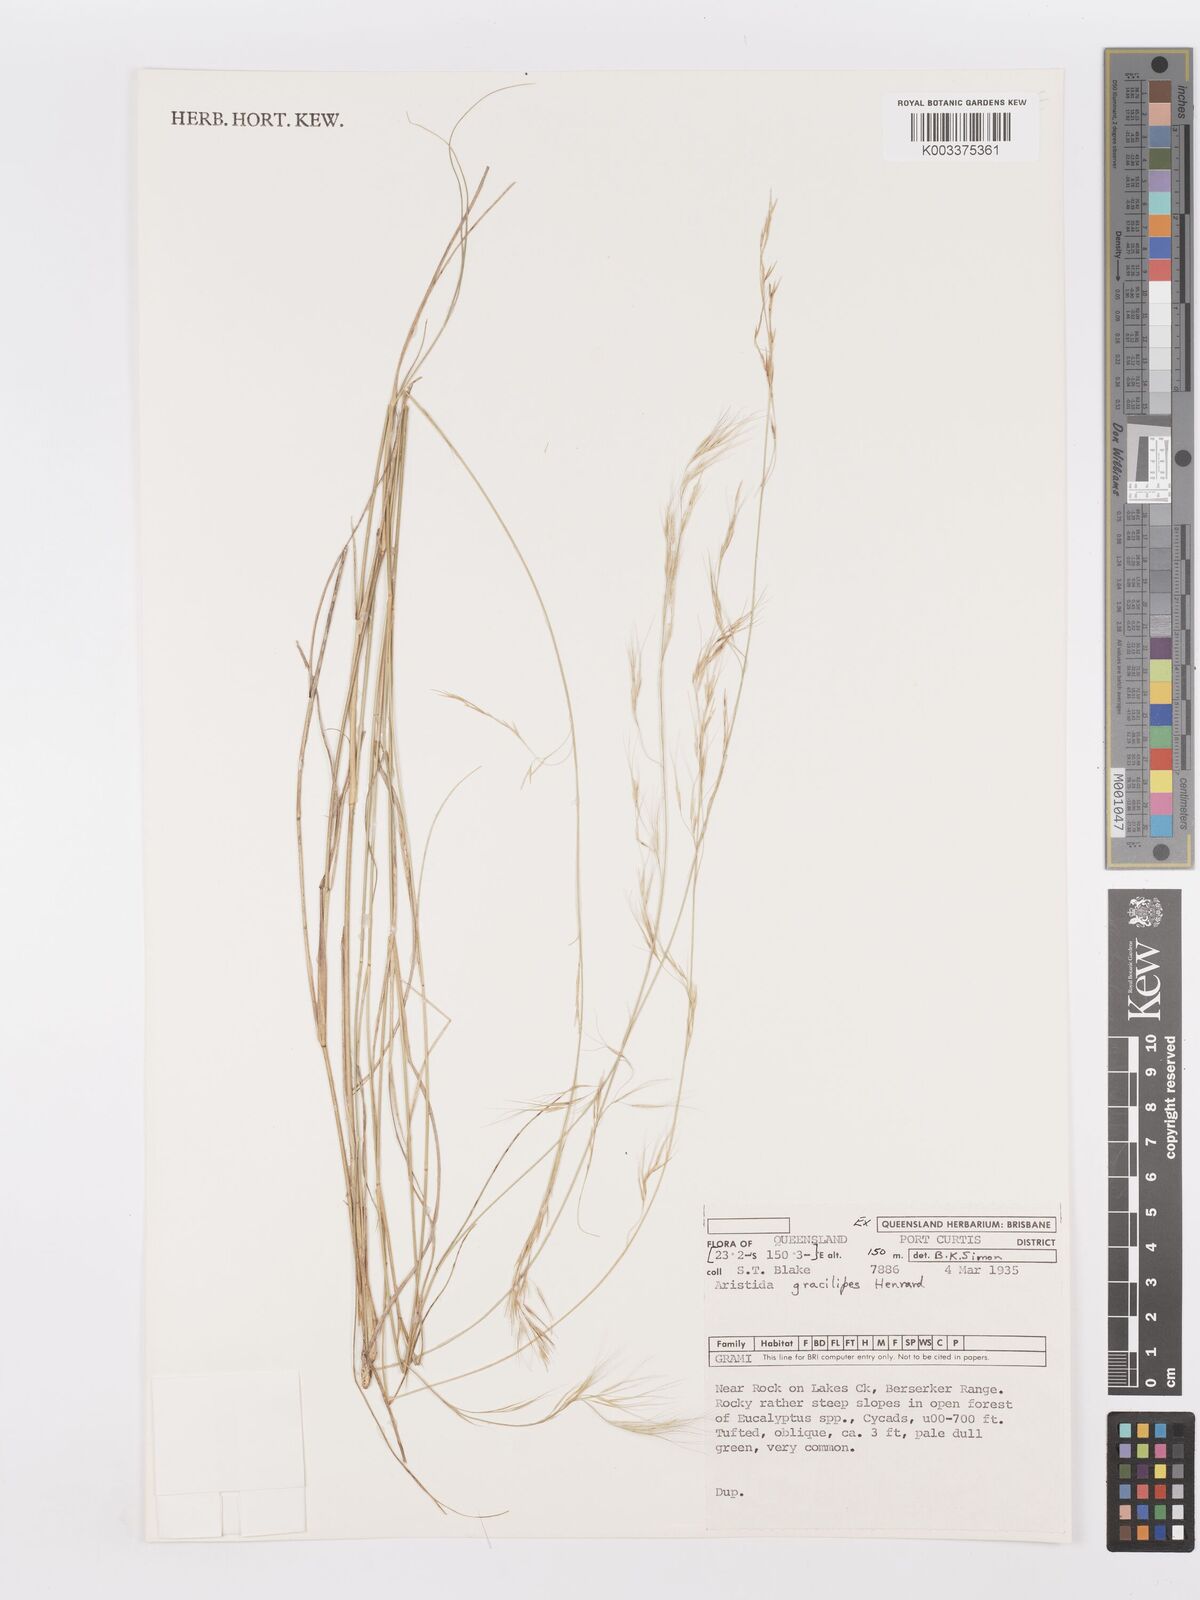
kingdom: Plantae
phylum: Tracheophyta
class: Liliopsida
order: Poales
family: Poaceae
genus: Aristida
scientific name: Aristida gracilipes
